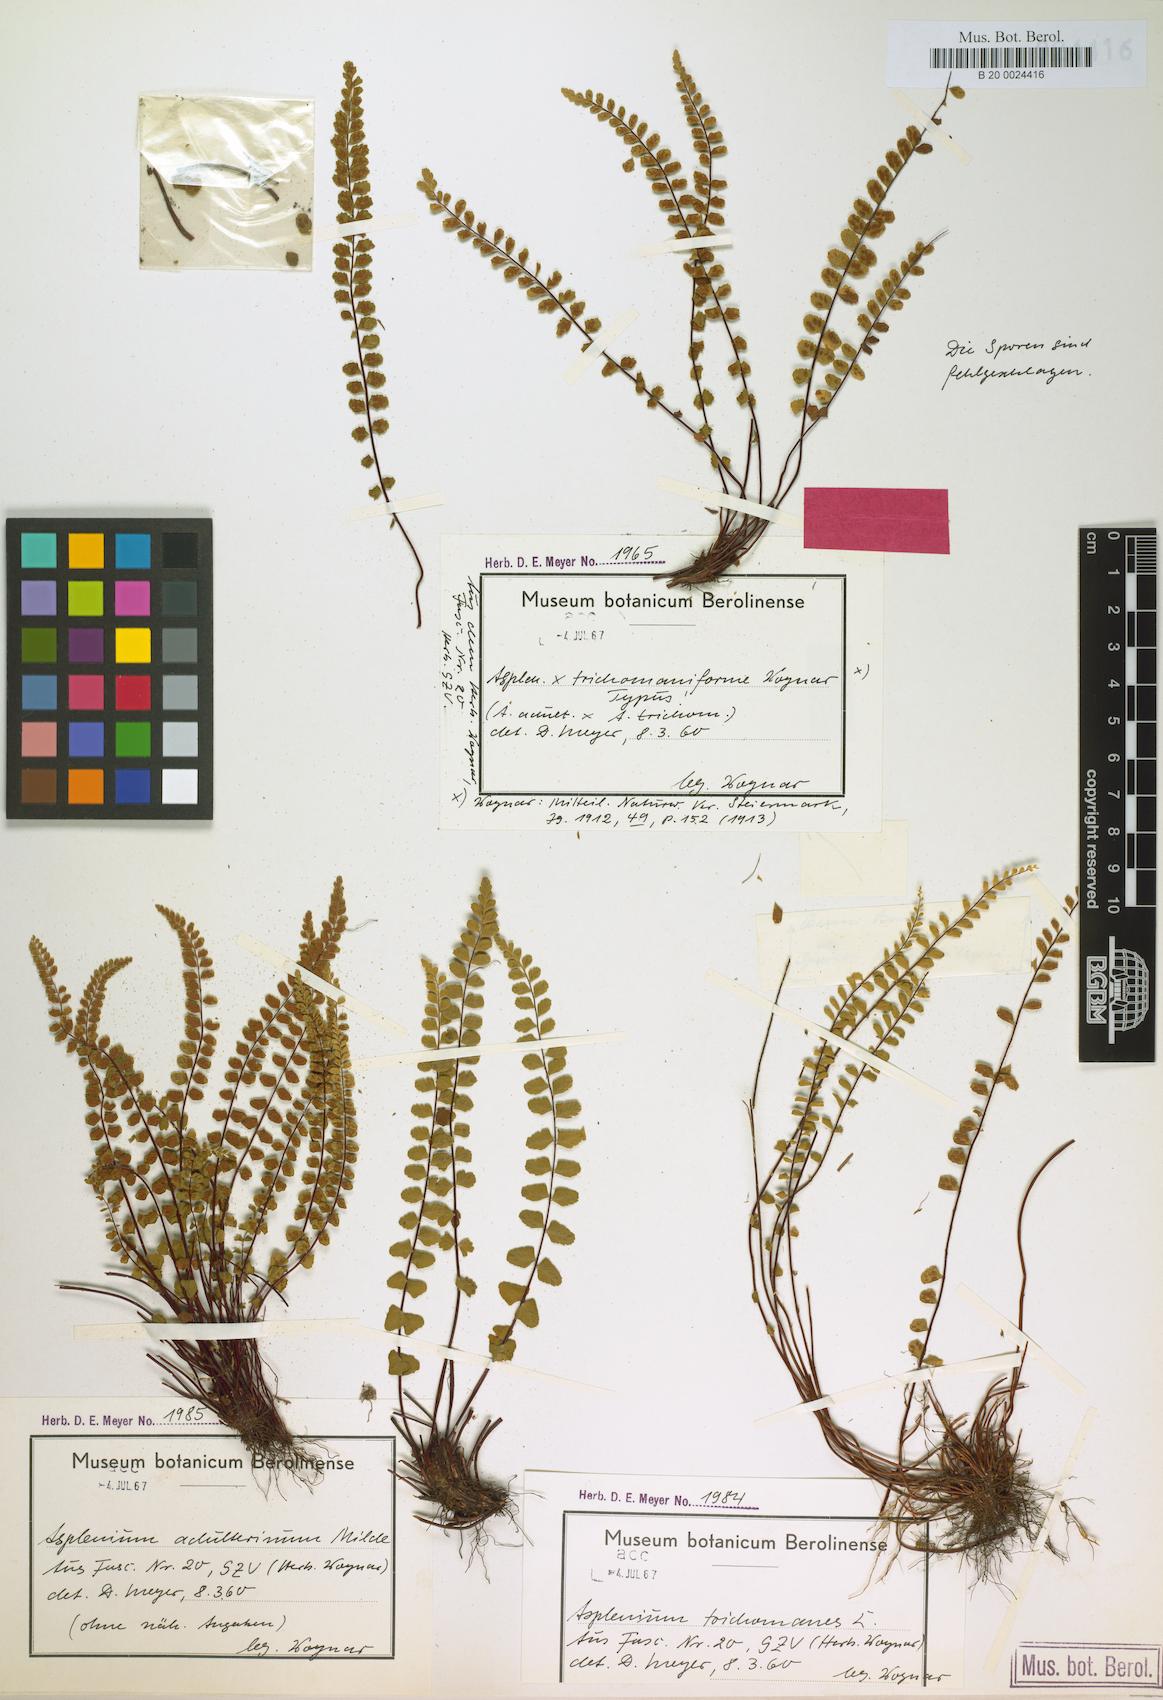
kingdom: Plantae
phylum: Tracheophyta
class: Polypodiopsida
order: Polypodiales
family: Aspleniaceae
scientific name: Aspleniaceae
